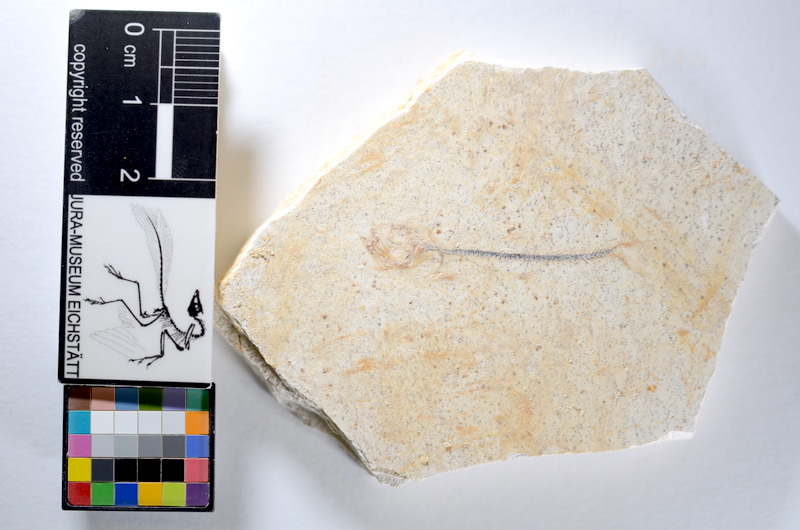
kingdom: Animalia
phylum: Chordata
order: Salmoniformes
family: Orthogonikleithridae
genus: Orthogonikleithrus
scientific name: Orthogonikleithrus hoelli
